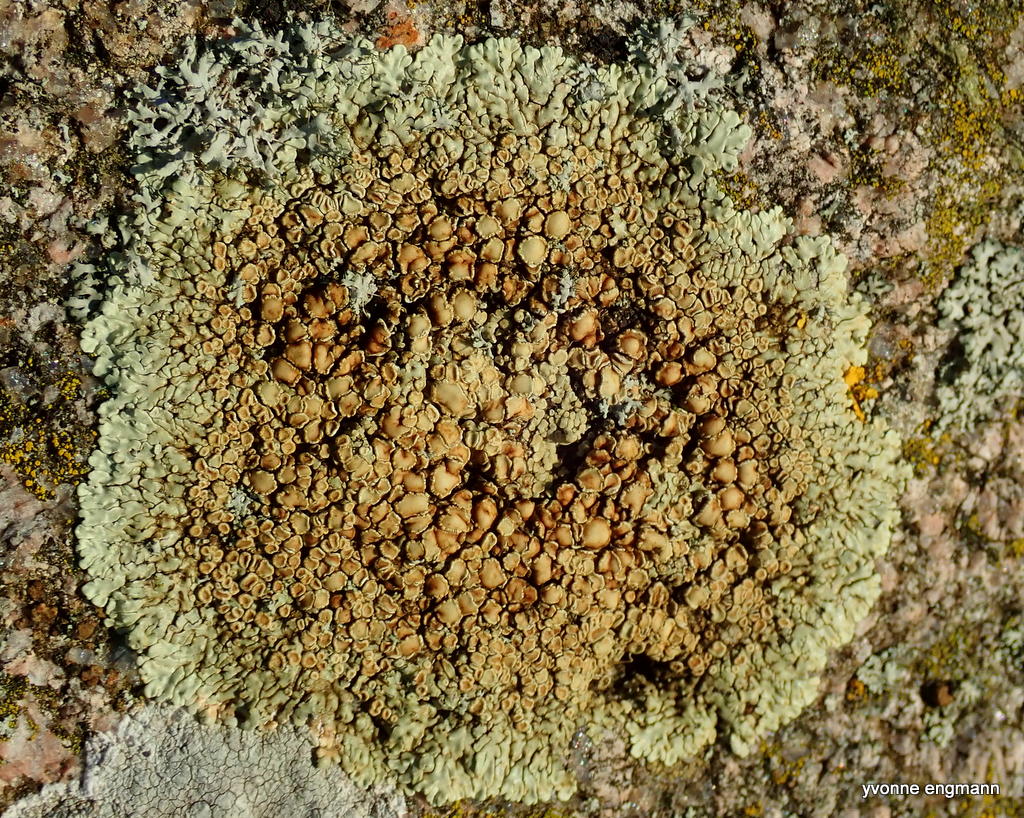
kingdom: Fungi
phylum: Ascomycota
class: Lecanoromycetes
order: Lecanorales
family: Lecanoraceae
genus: Protoparmeliopsis
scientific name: Protoparmeliopsis muralis
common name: randfliget kantskivelav
